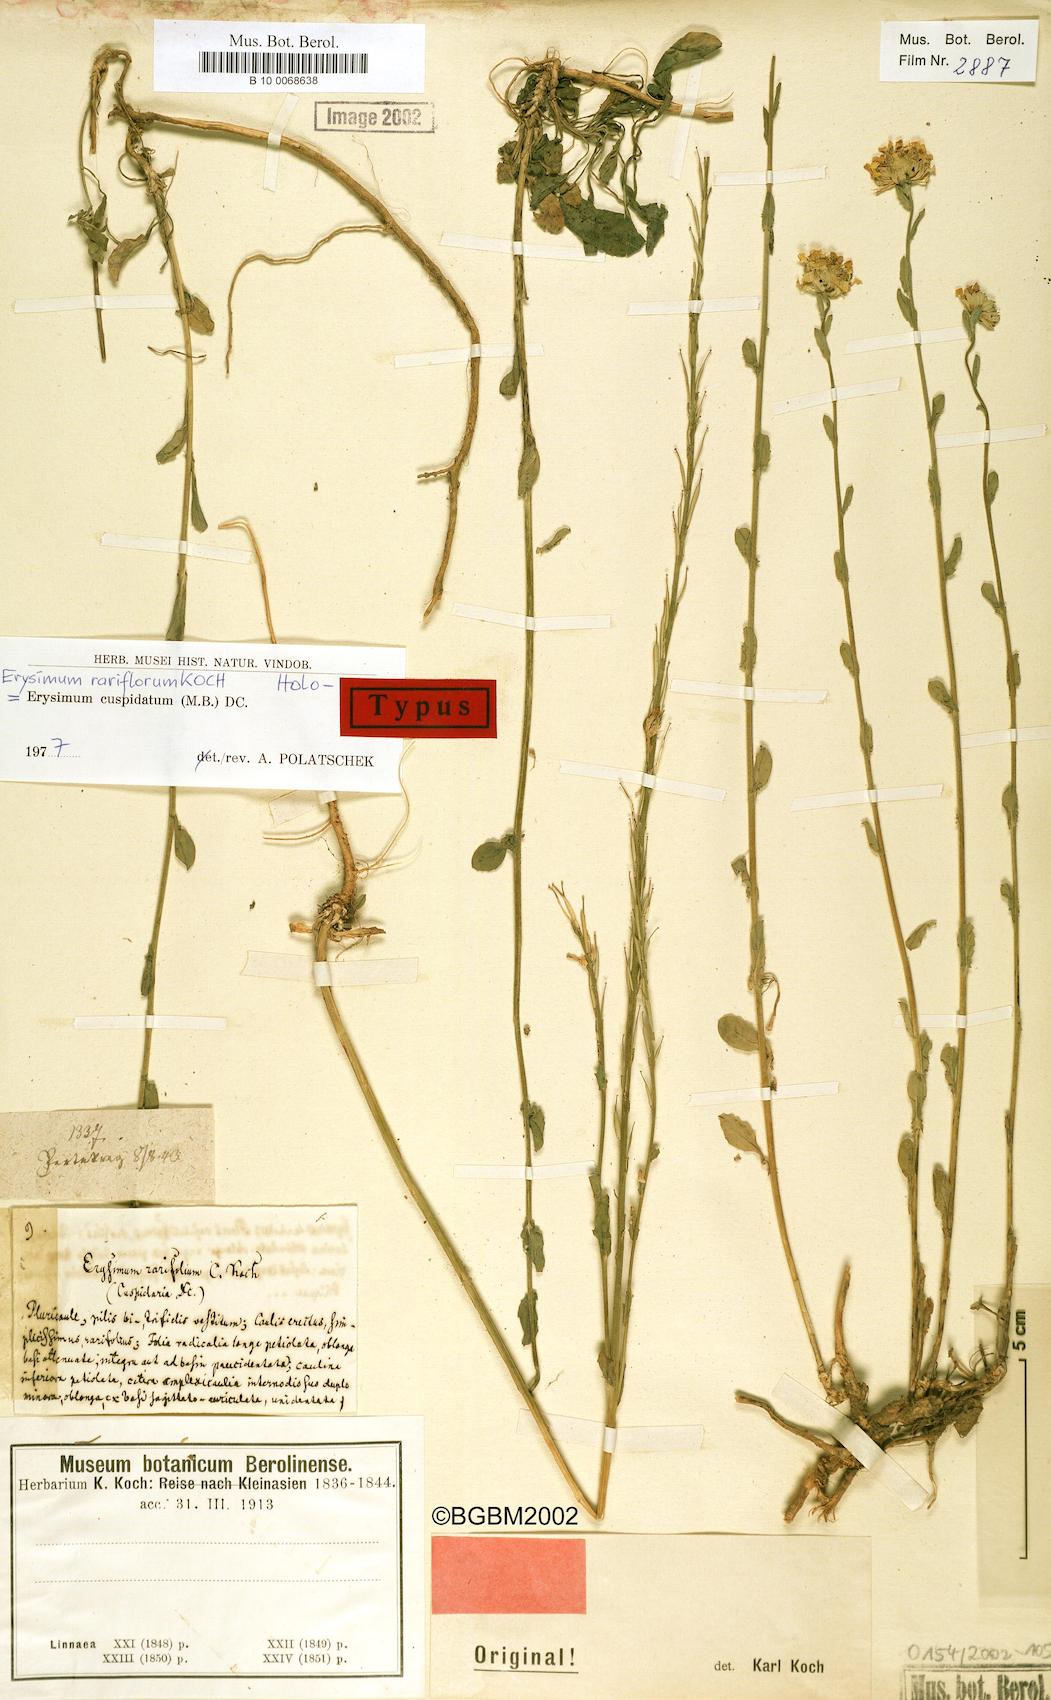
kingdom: Plantae
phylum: Tracheophyta
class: Magnoliopsida
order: Brassicales
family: Brassicaceae
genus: Erysimum
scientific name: Erysimum cuspidatum
